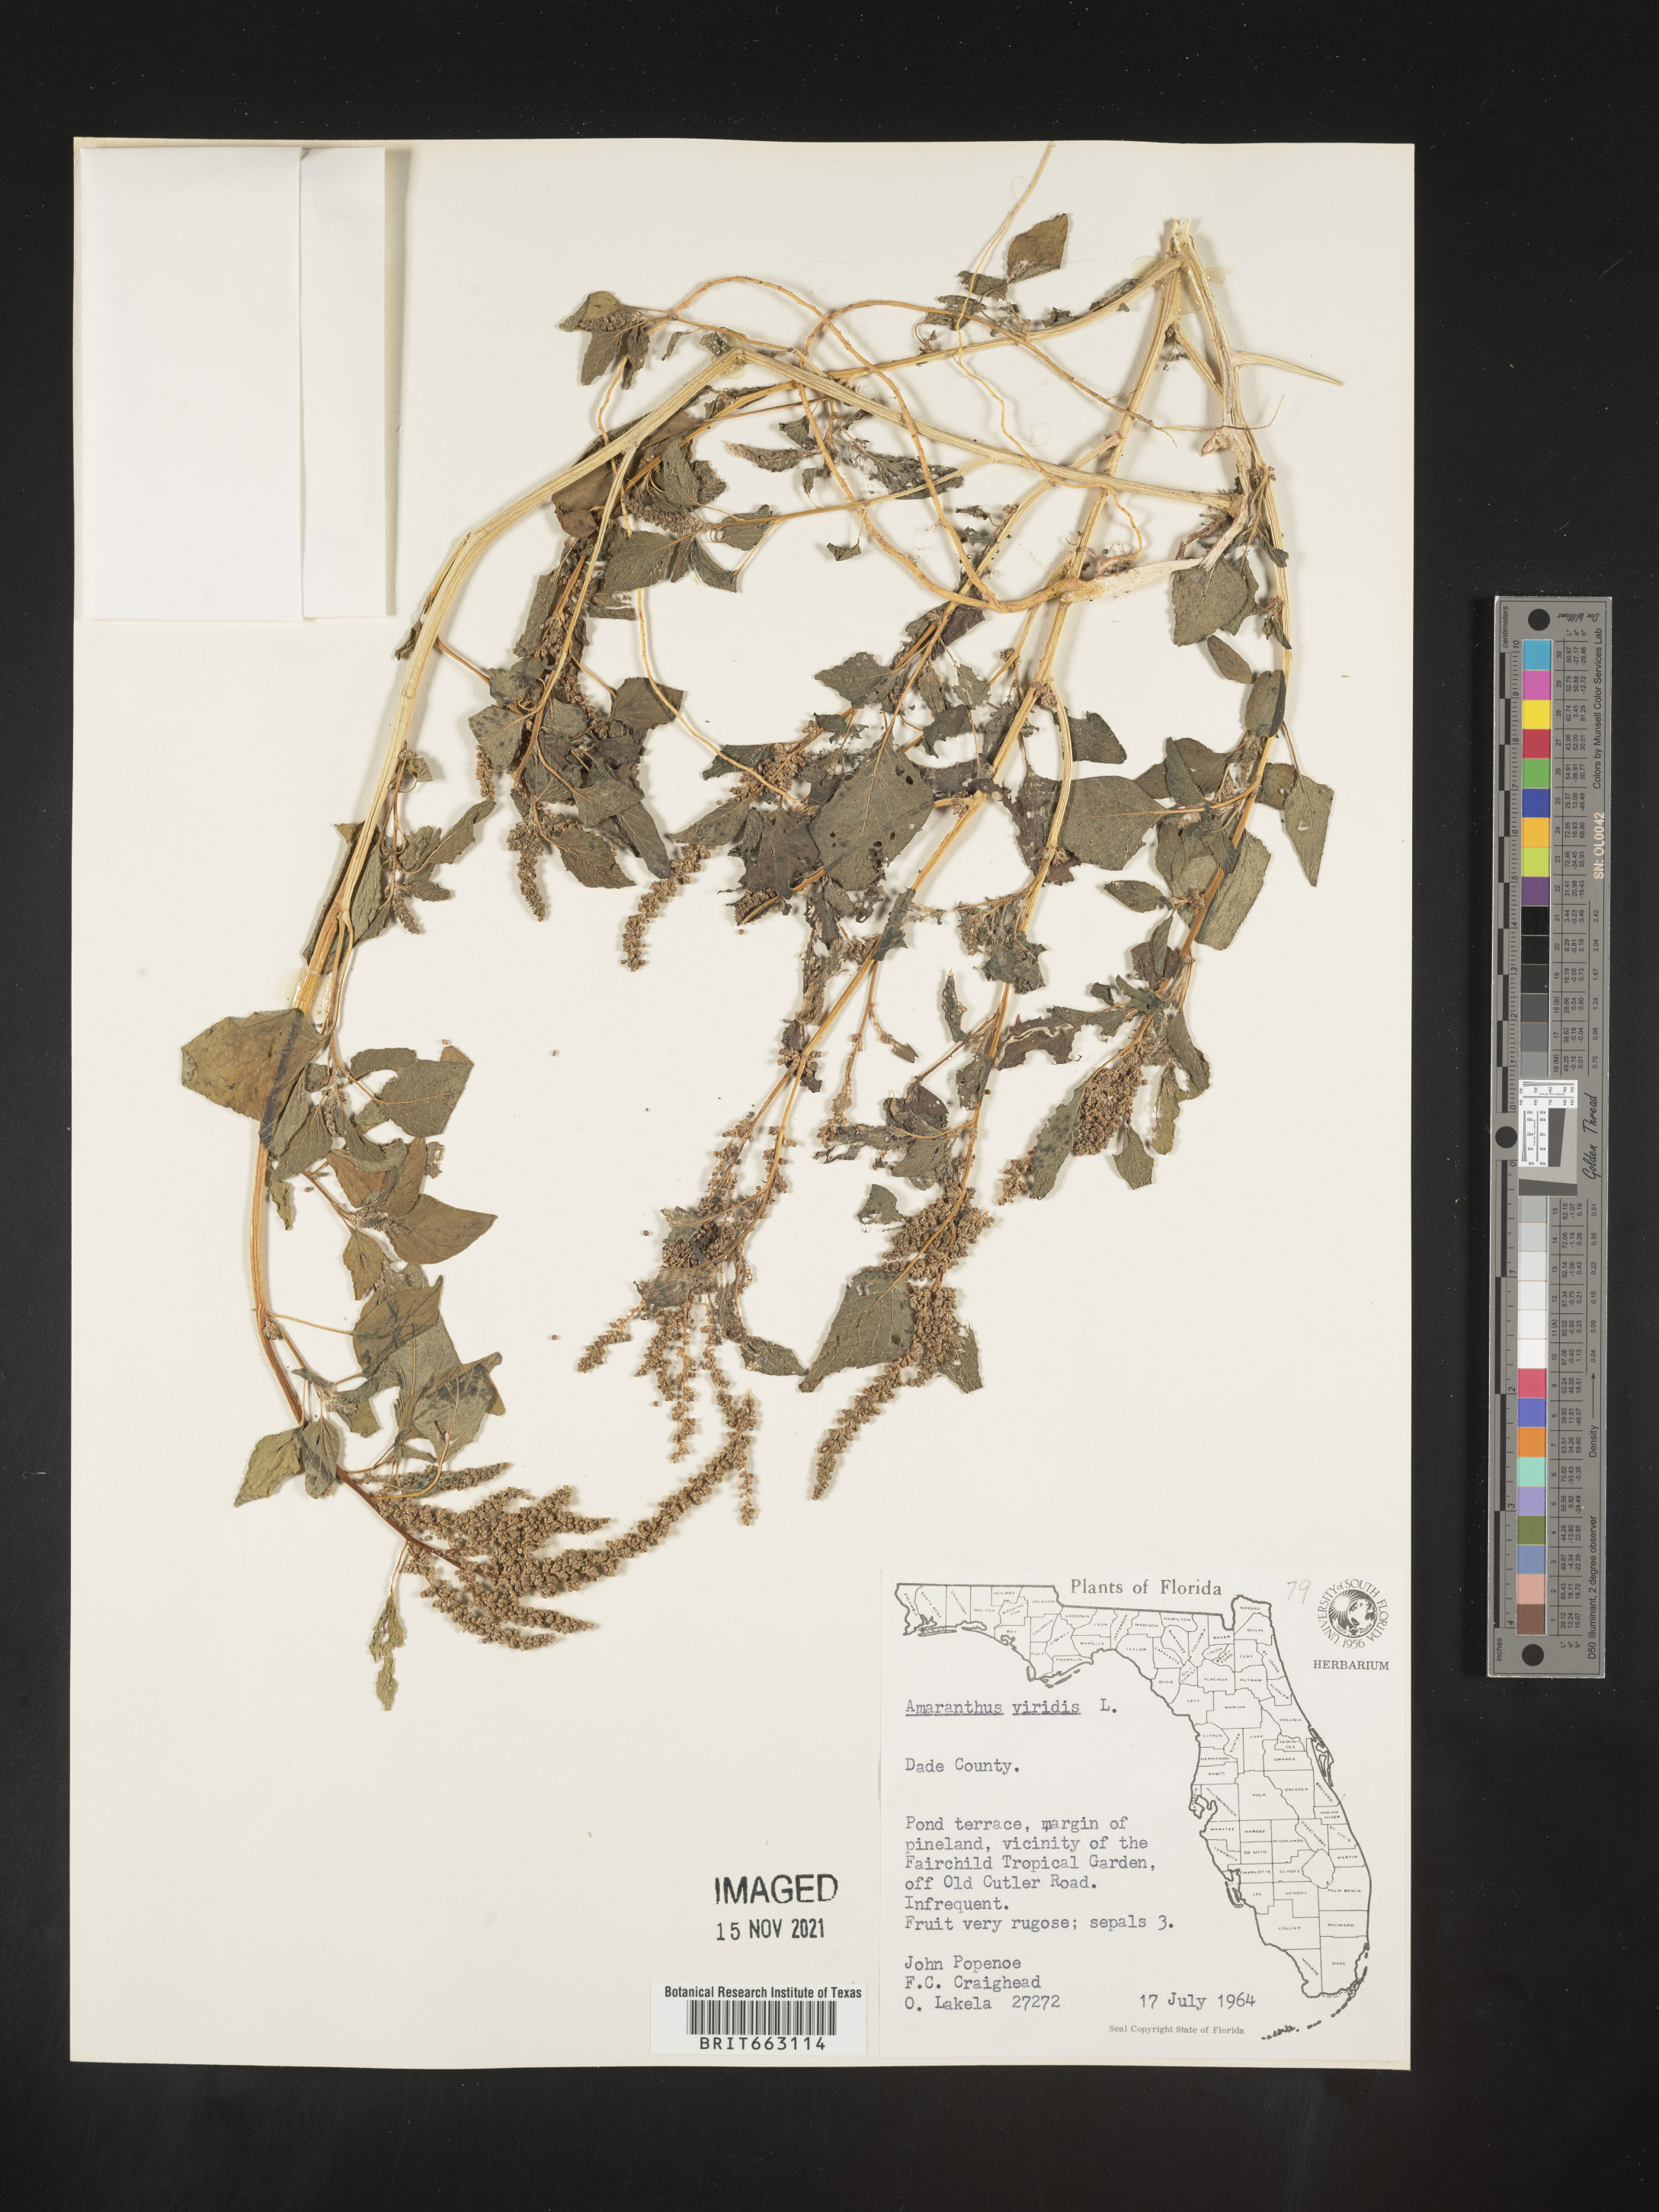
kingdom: Plantae
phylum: Tracheophyta
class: Magnoliopsida
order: Caryophyllales
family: Amaranthaceae
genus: Amaranthus
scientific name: Amaranthus viridis
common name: Slender amaranth
